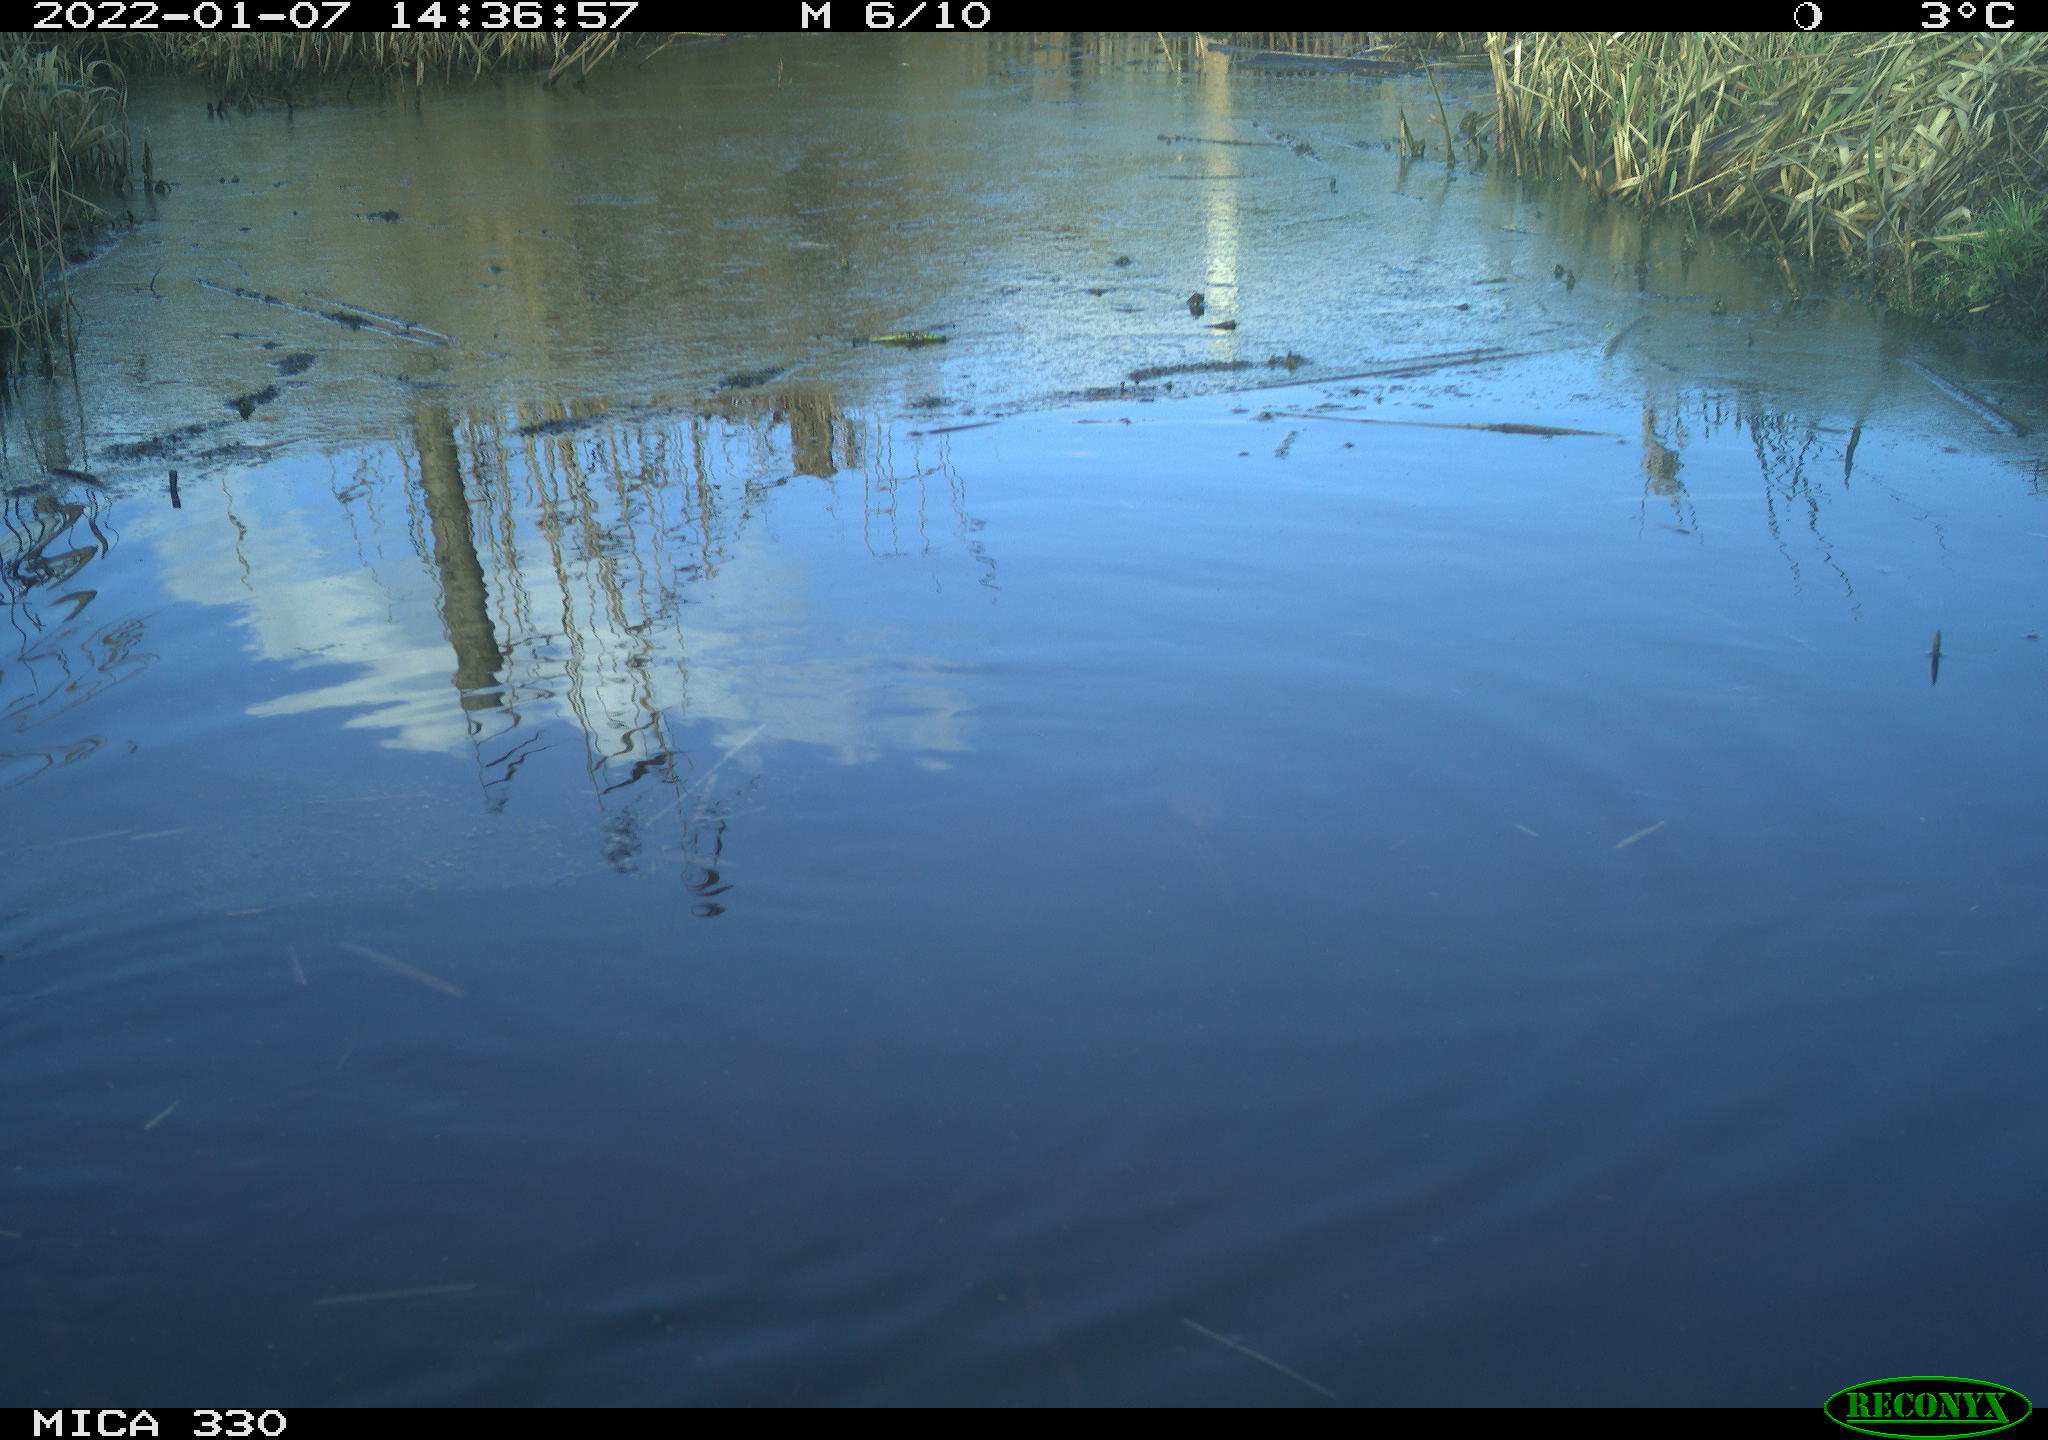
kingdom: Animalia
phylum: Chordata
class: Aves
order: Gruiformes
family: Rallidae
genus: Gallinula
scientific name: Gallinula chloropus
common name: Common moorhen
